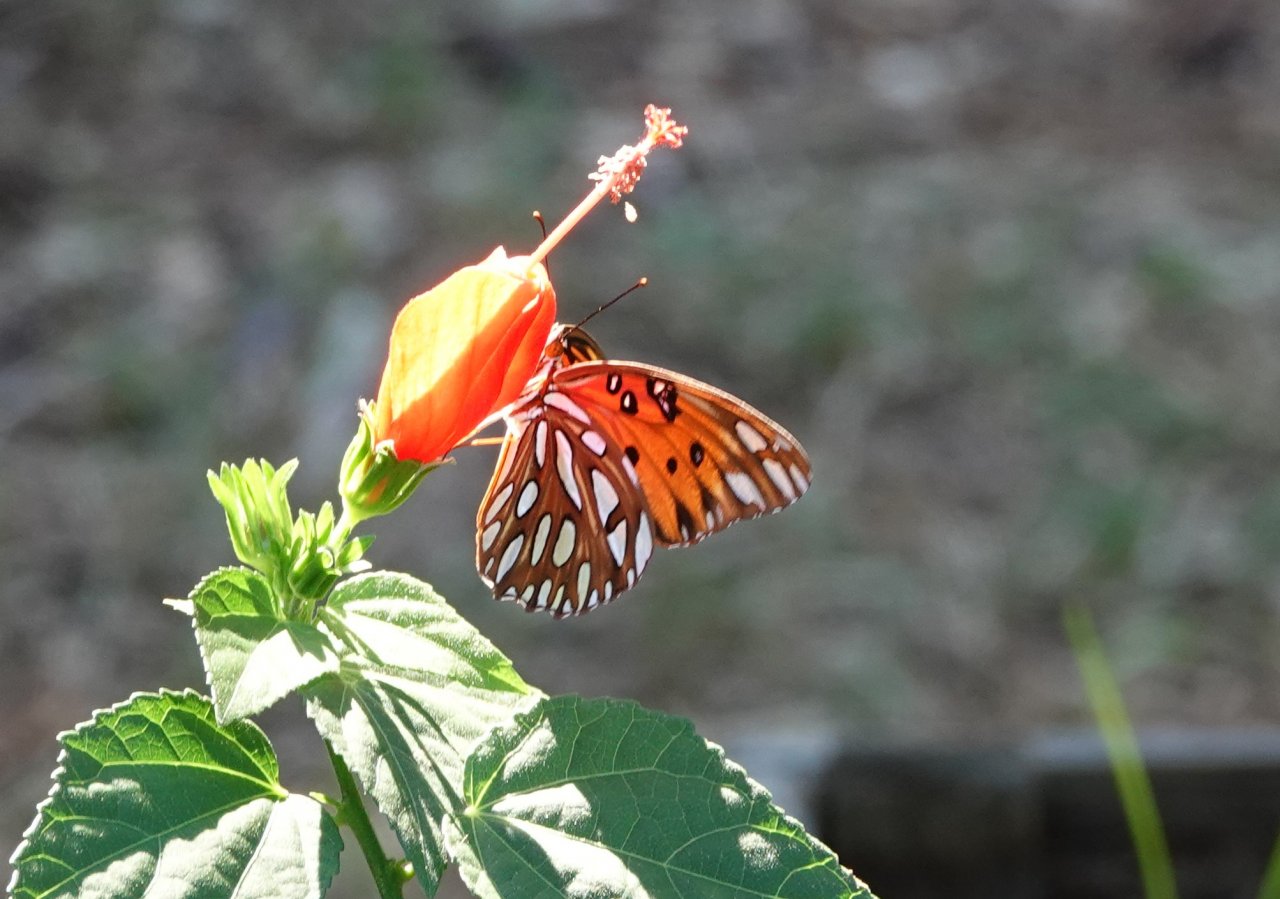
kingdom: Animalia
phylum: Arthropoda
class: Insecta
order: Lepidoptera
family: Nymphalidae
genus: Dione
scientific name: Dione vanillae
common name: Gulf Fritillary
